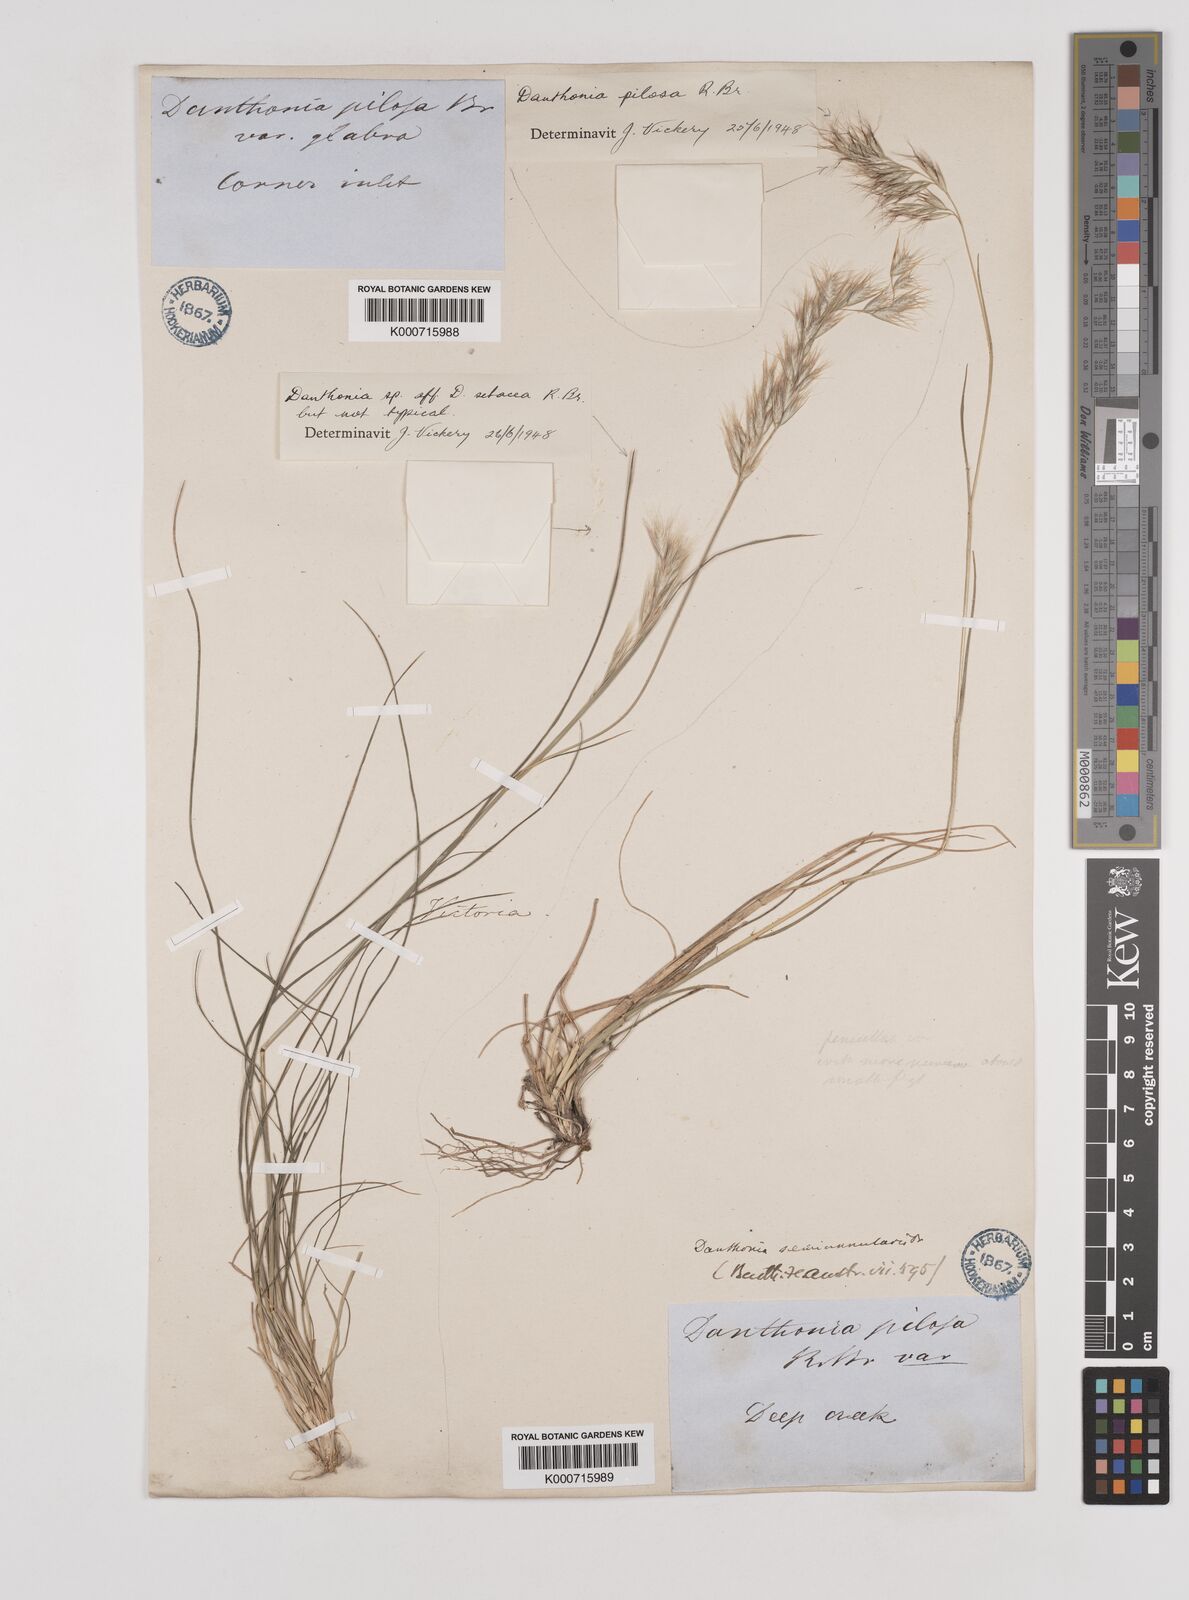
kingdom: Plantae
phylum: Tracheophyta
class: Liliopsida
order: Poales
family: Poaceae
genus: Rytidosperma
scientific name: Rytidosperma pilosum
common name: Hairy wallaby grass
